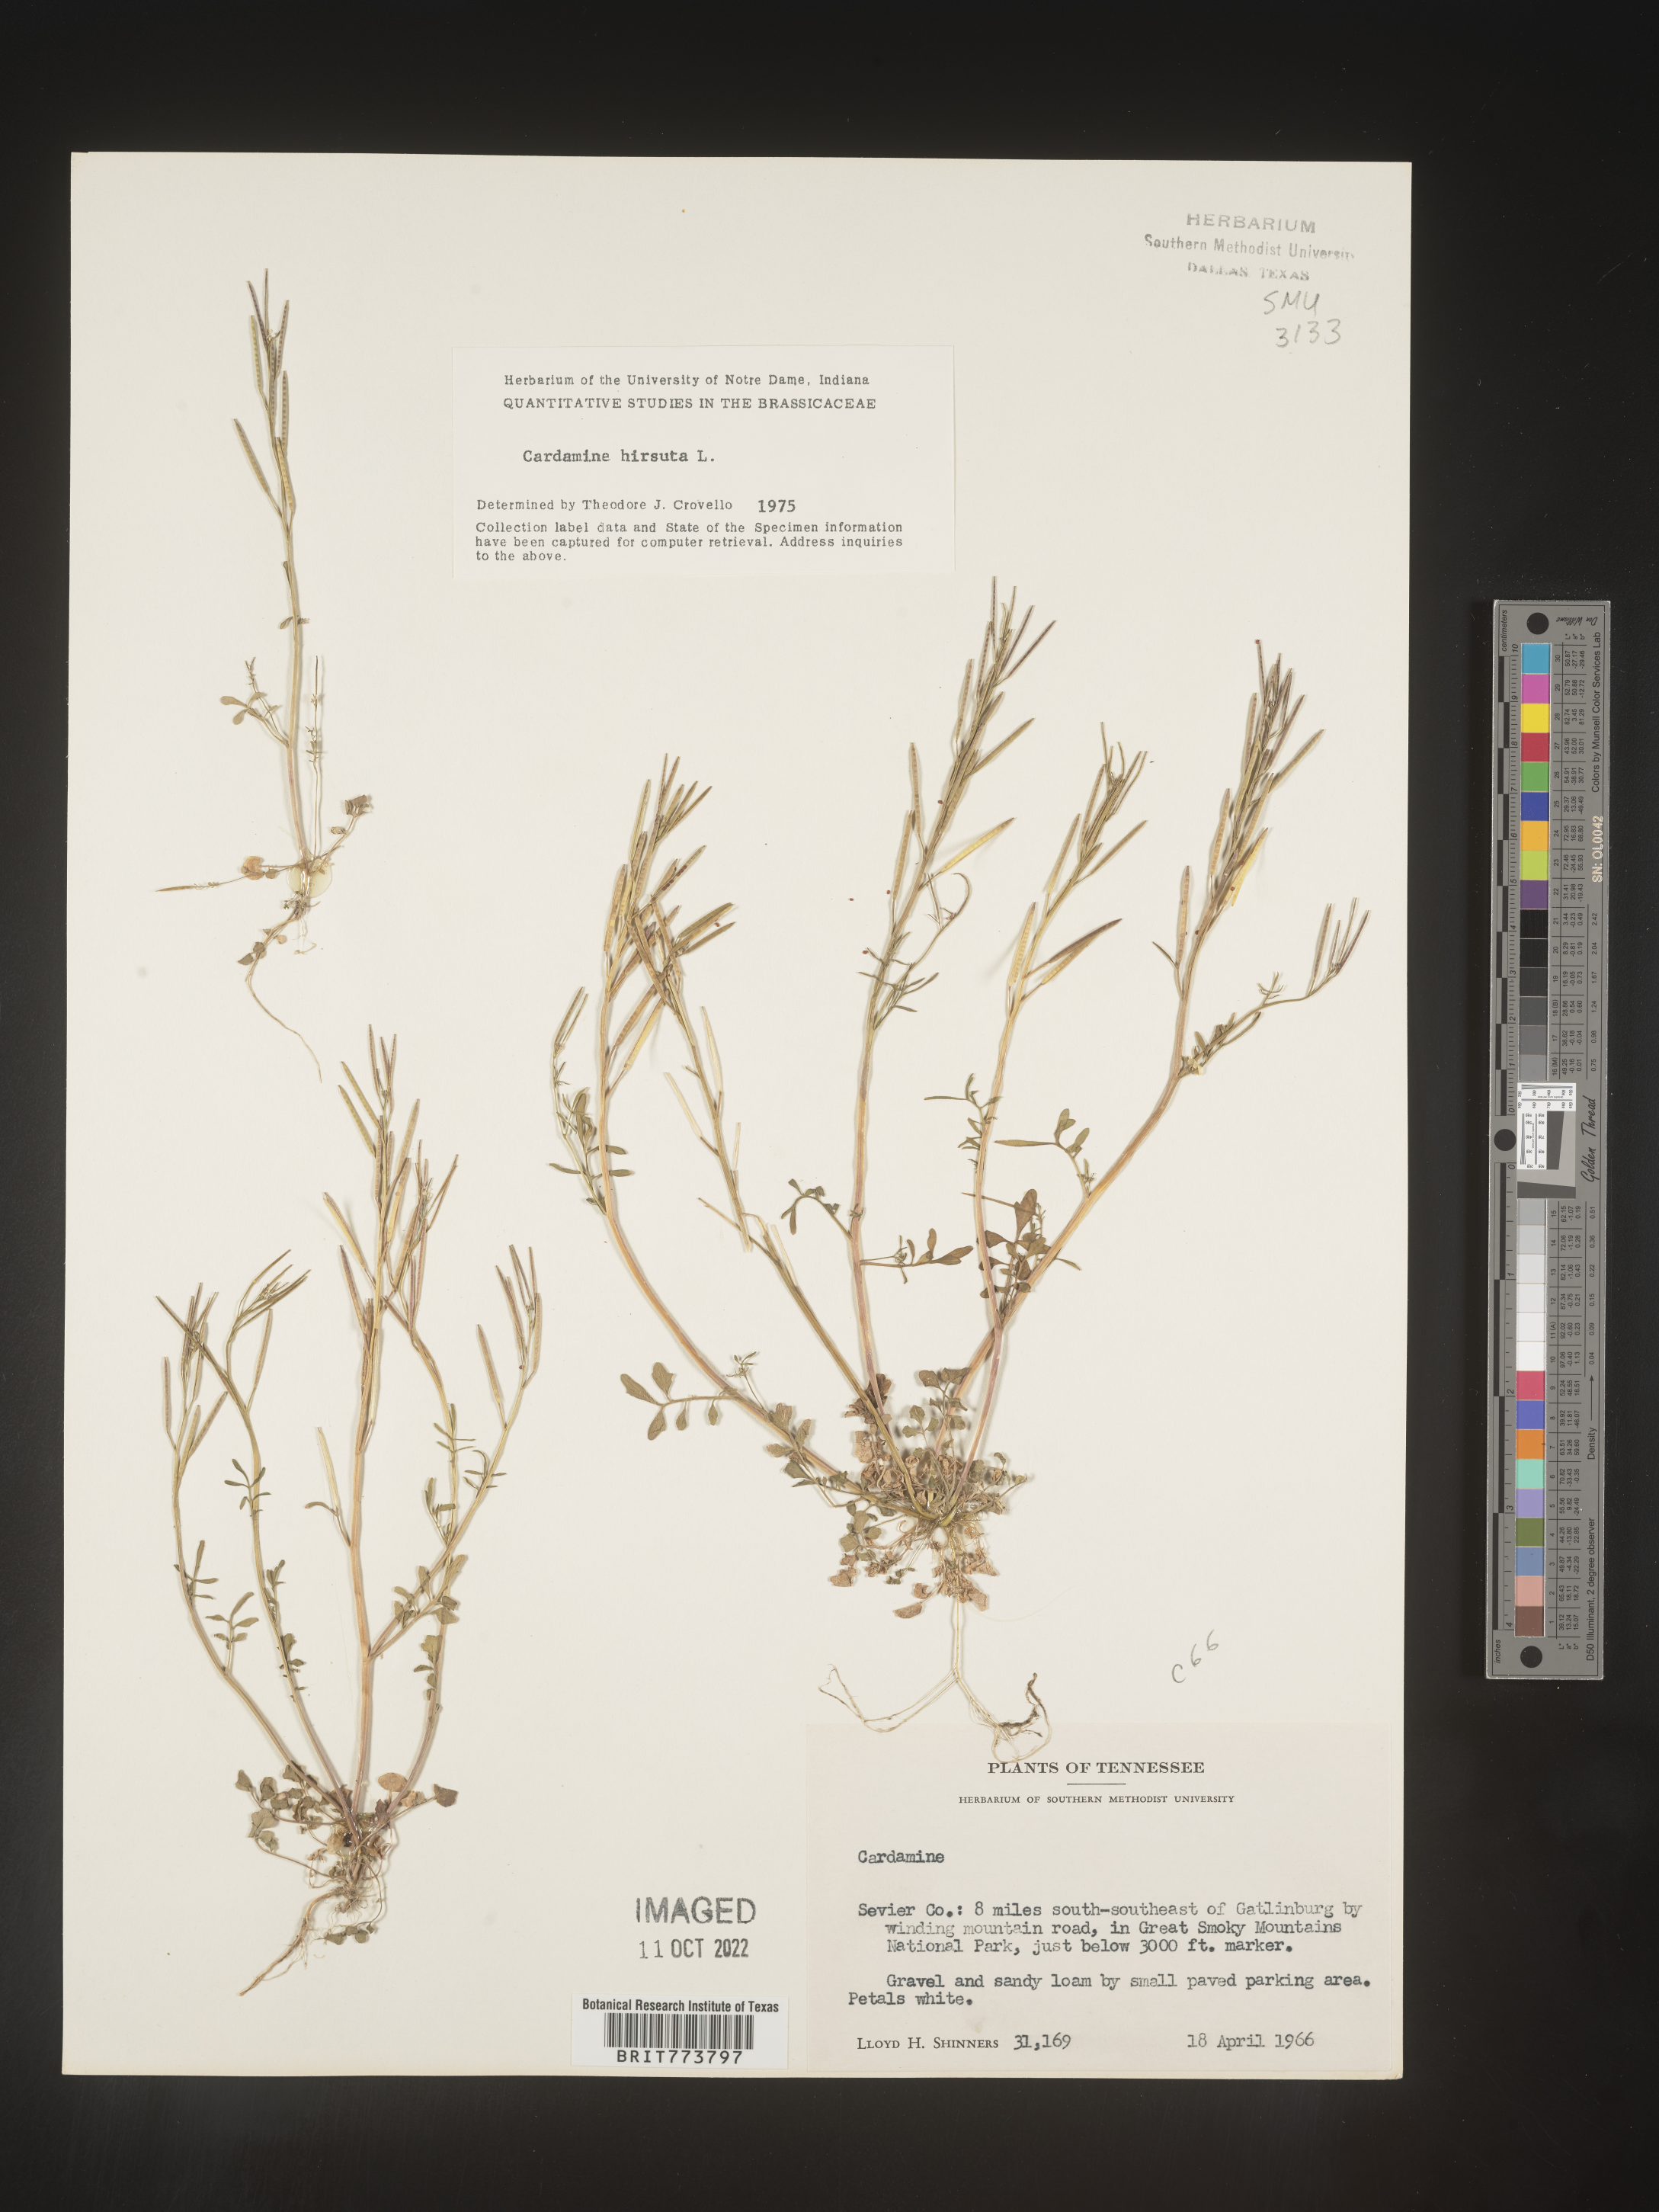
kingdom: Plantae
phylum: Tracheophyta
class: Magnoliopsida
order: Brassicales
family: Brassicaceae
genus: Cardamine
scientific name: Cardamine hirsuta
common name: Hairy bittercress
